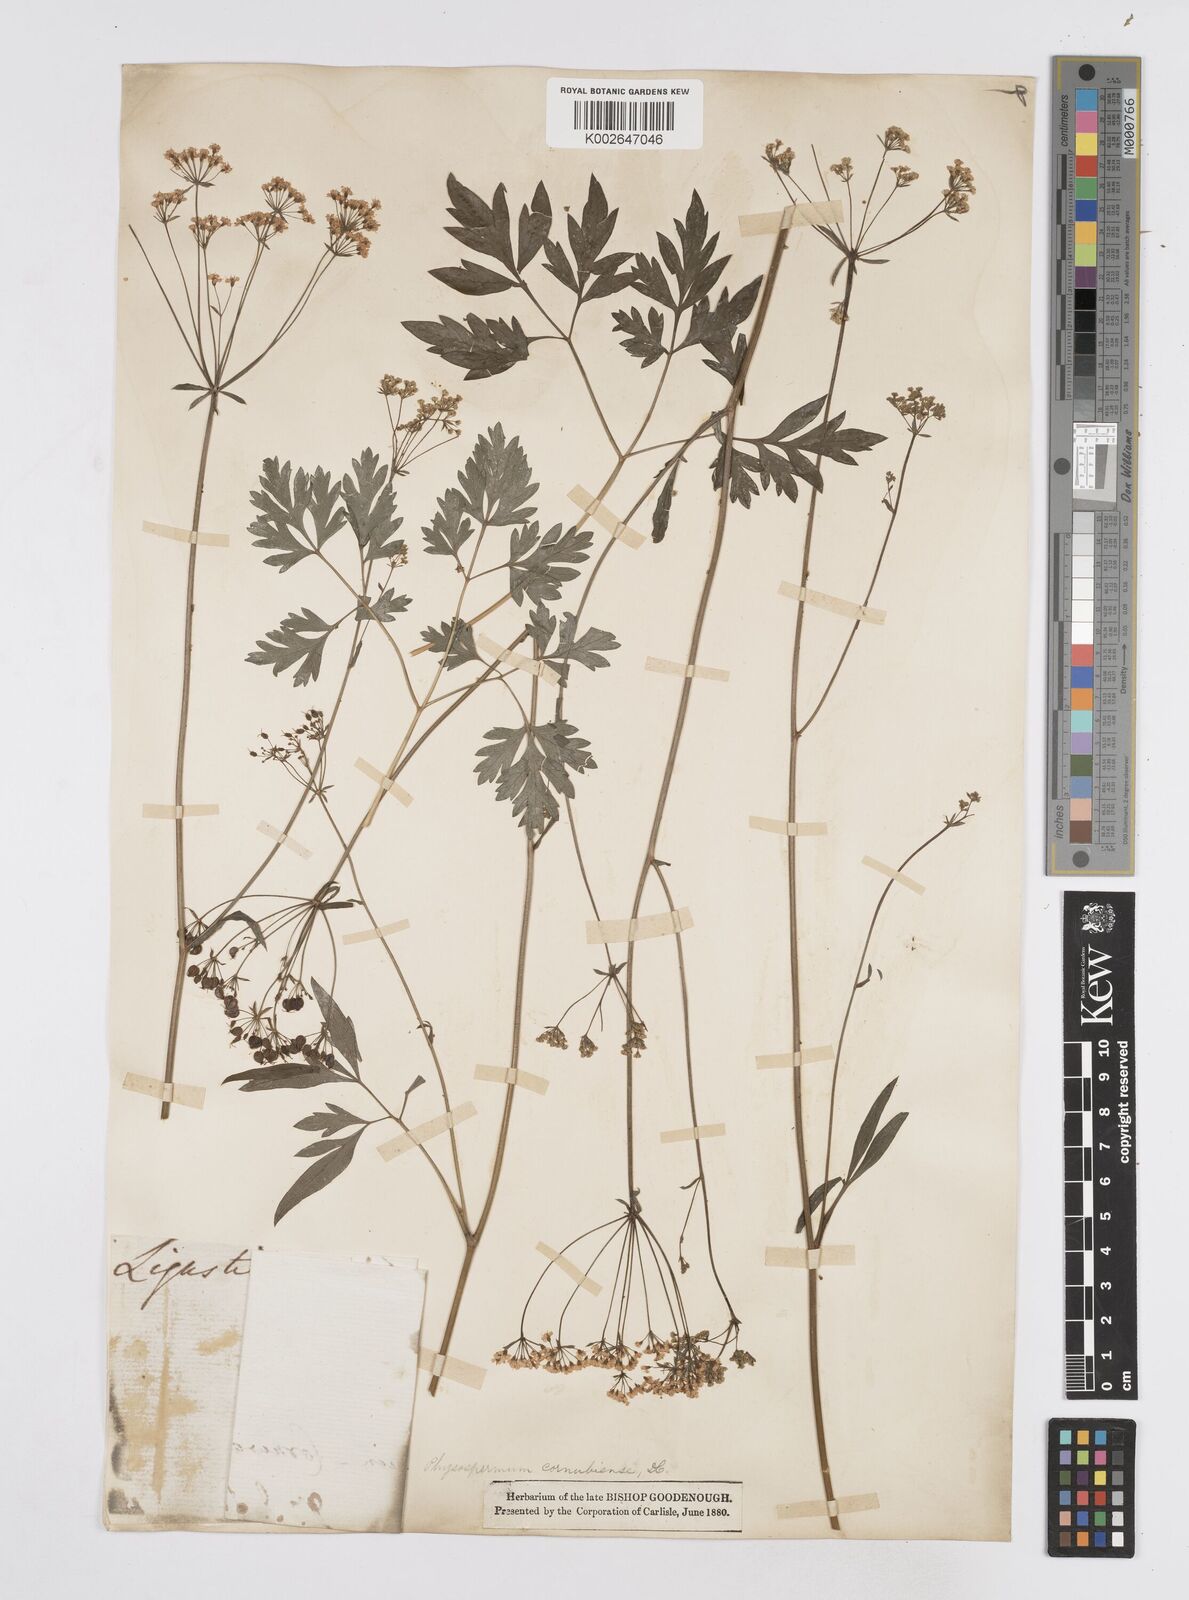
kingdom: Plantae
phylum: Tracheophyta
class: Magnoliopsida
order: Apiales
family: Apiaceae
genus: Physospermum
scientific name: Physospermum cornubiense
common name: Bladderseed
